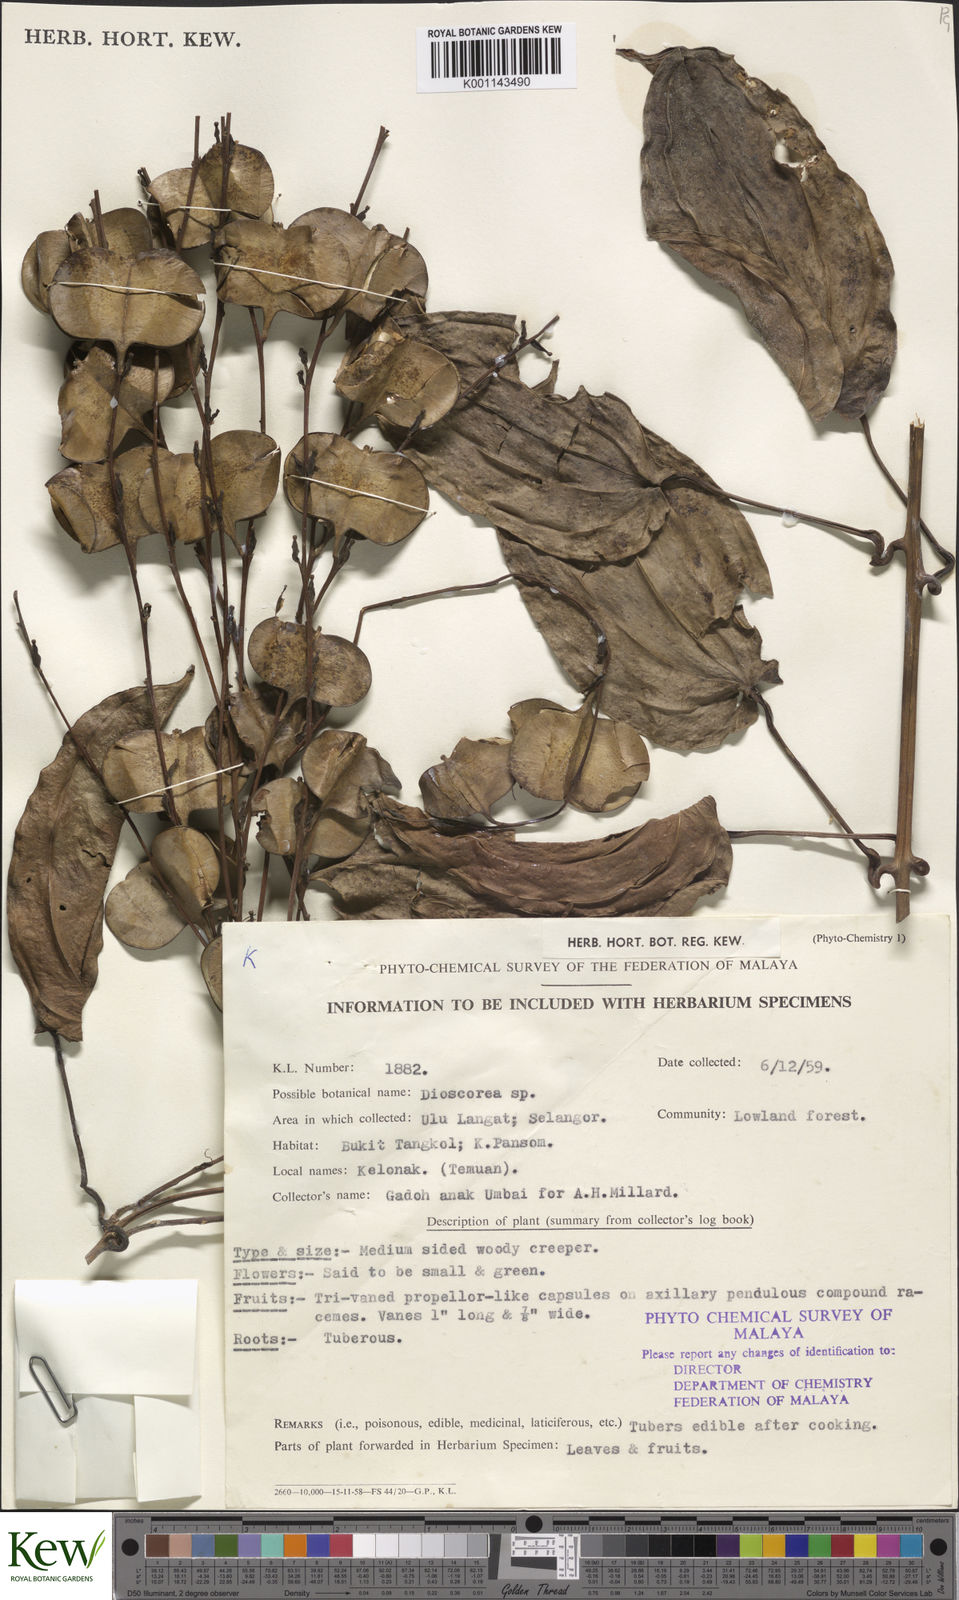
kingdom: Plantae
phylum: Tracheophyta
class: Liliopsida
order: Dioscoreales
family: Dioscoreaceae
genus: Dioscorea
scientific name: Dioscorea
